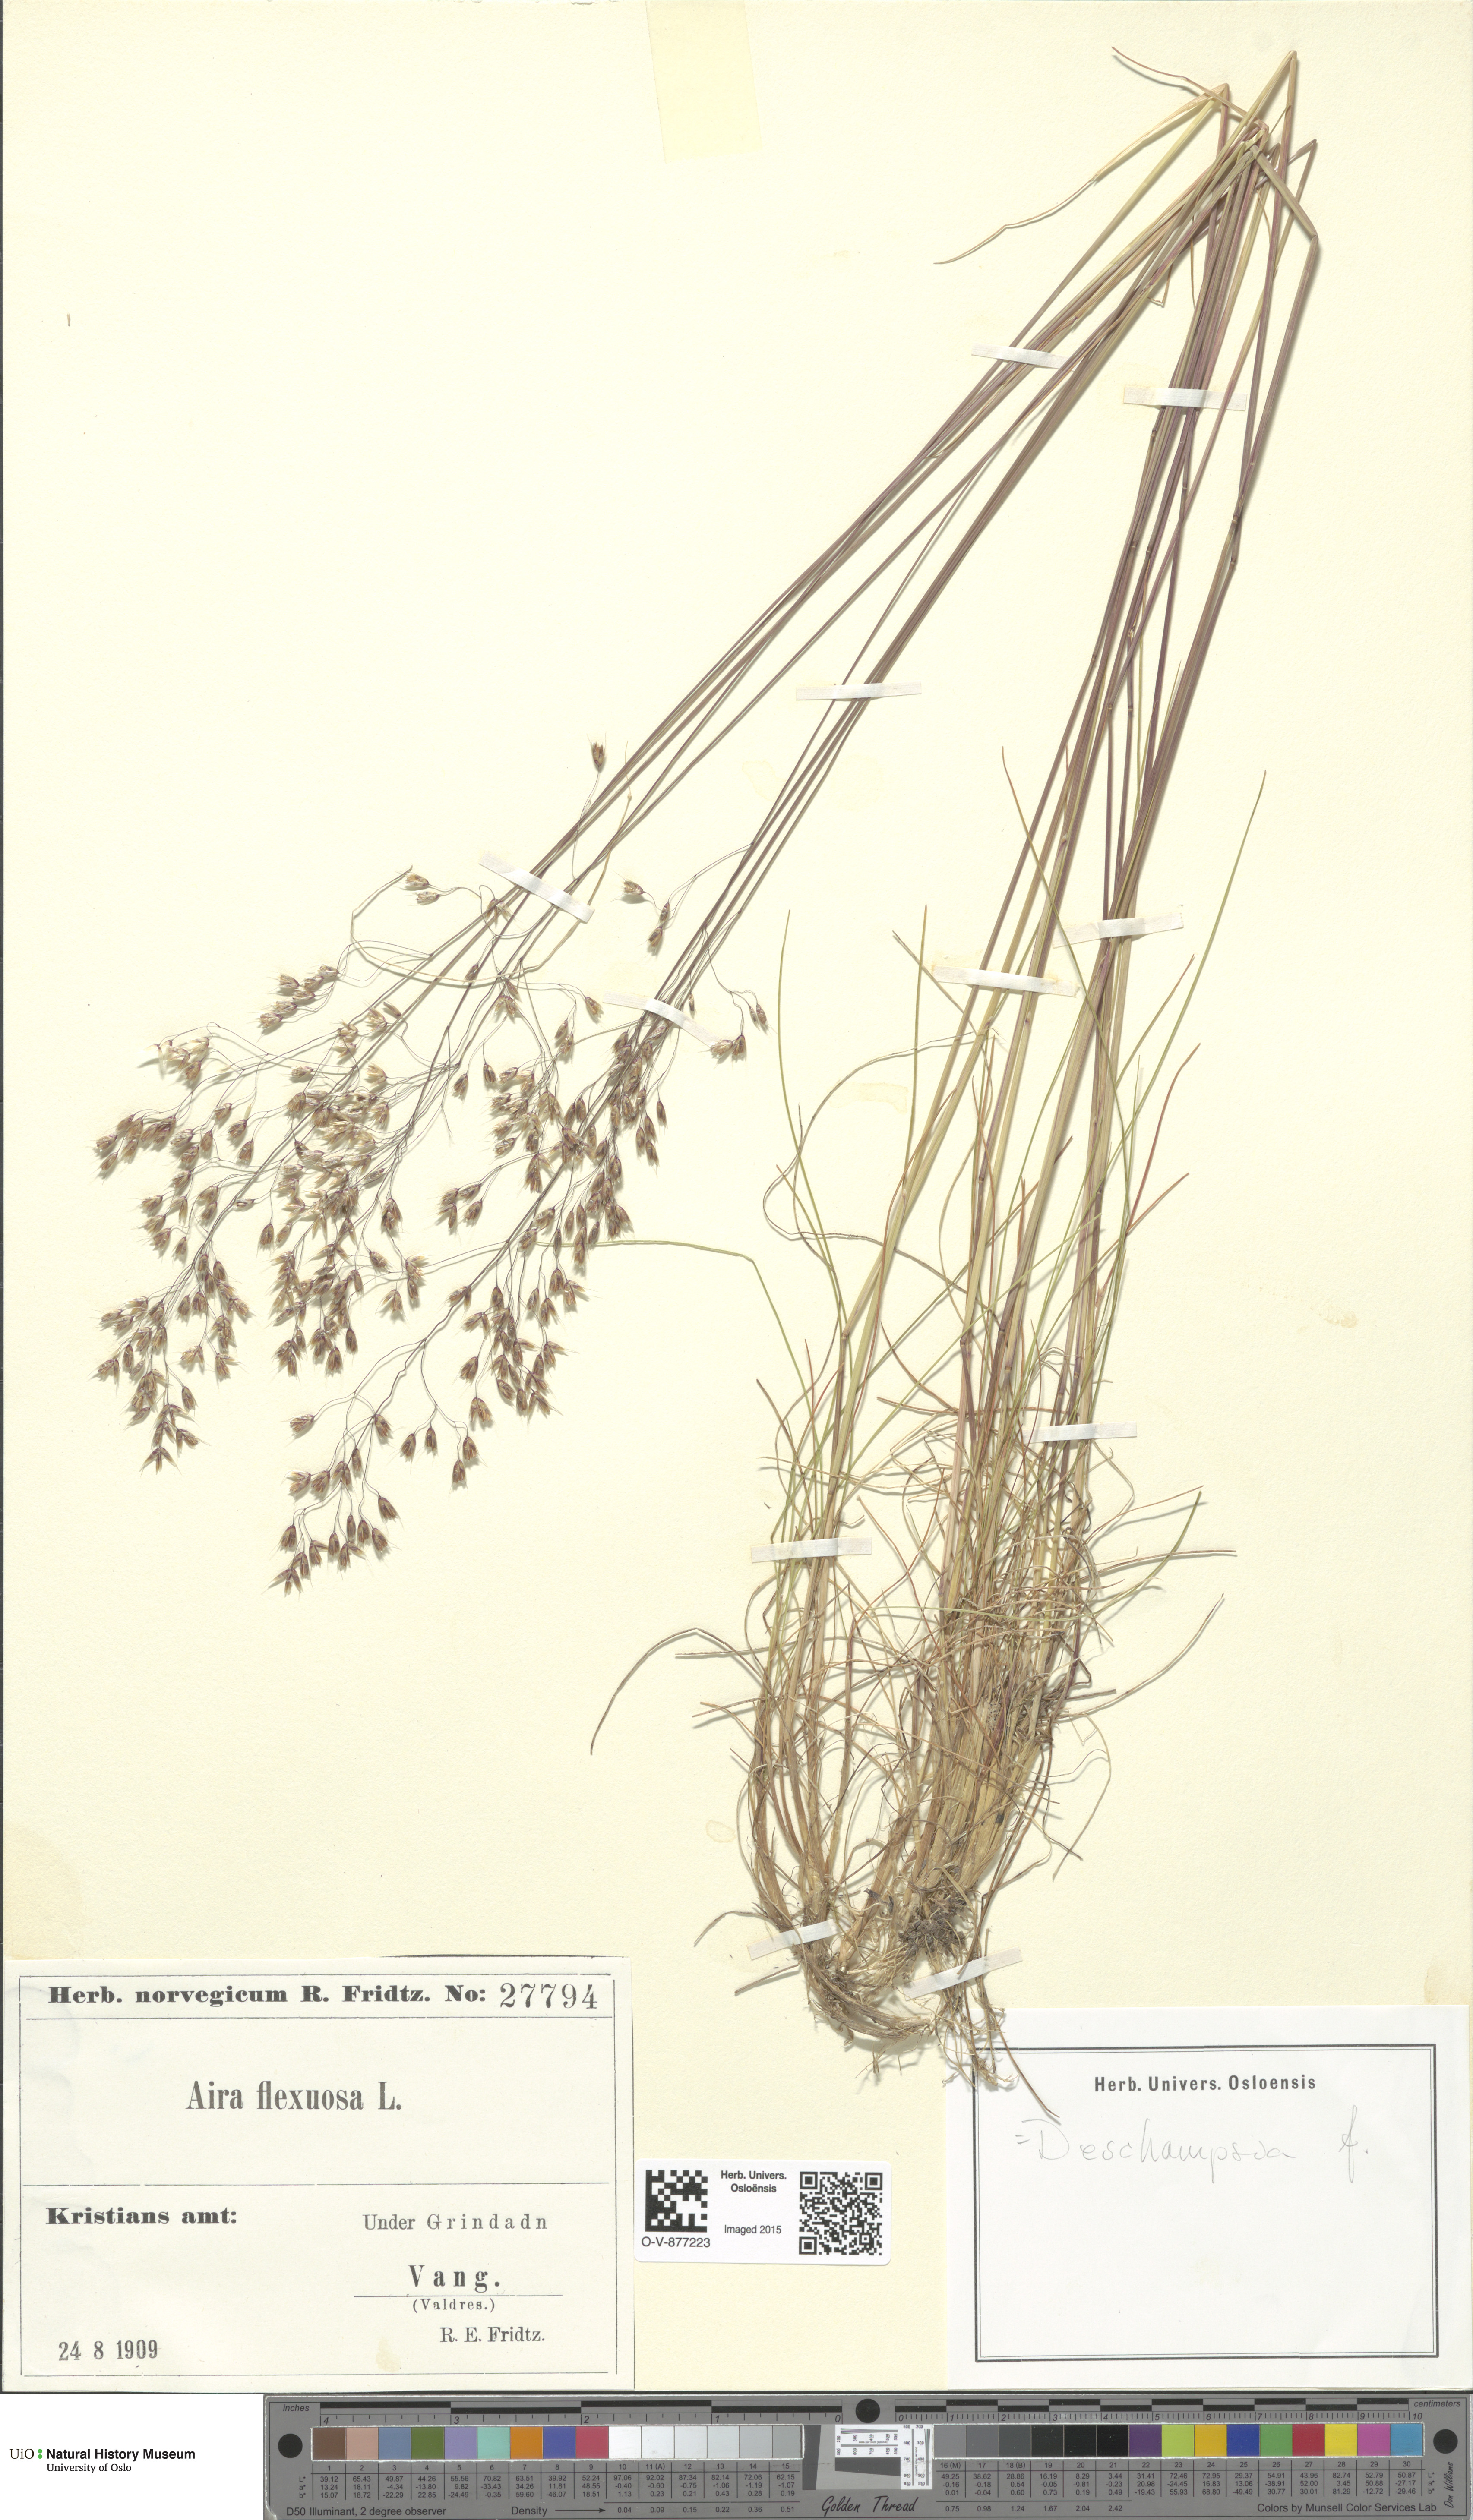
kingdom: Plantae
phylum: Tracheophyta
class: Liliopsida
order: Poales
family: Poaceae
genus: Avenella
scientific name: Avenella flexuosa
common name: Wavy hairgrass
